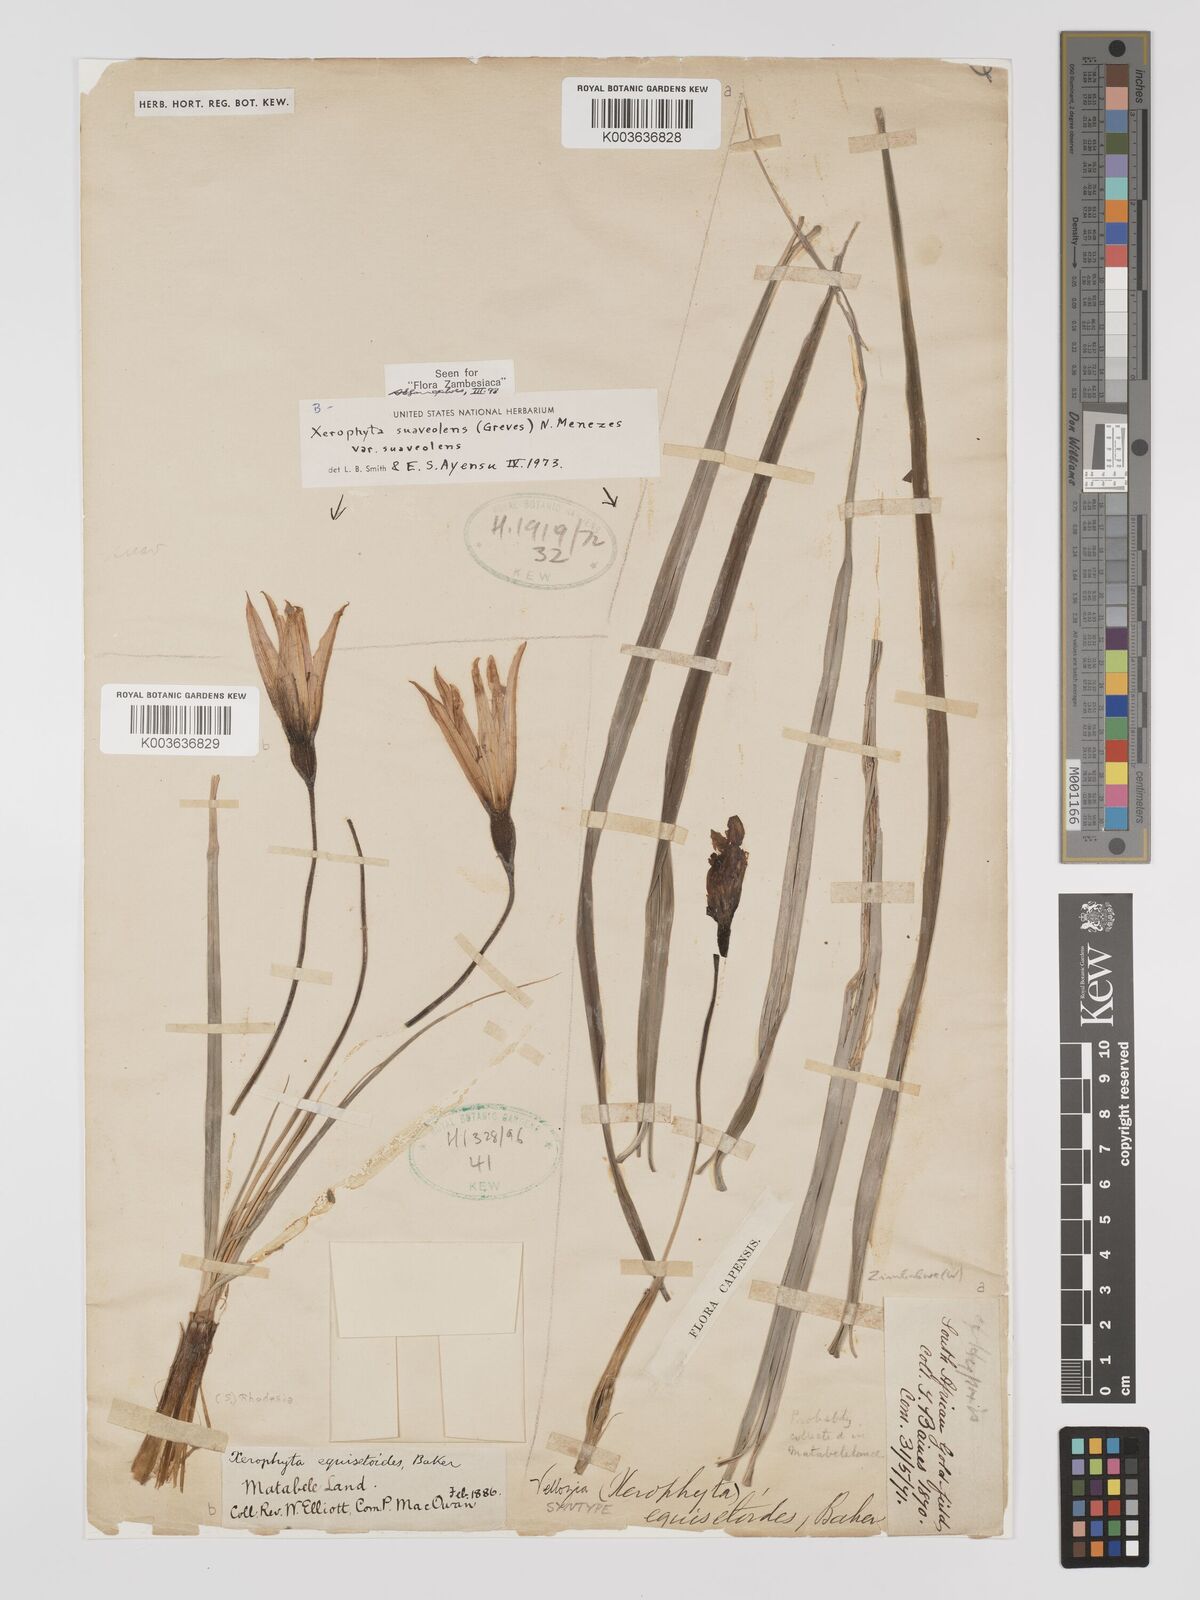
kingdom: Plantae
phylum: Tracheophyta
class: Liliopsida
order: Pandanales
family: Velloziaceae
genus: Xerophyta
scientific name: Xerophyta suaveolens
